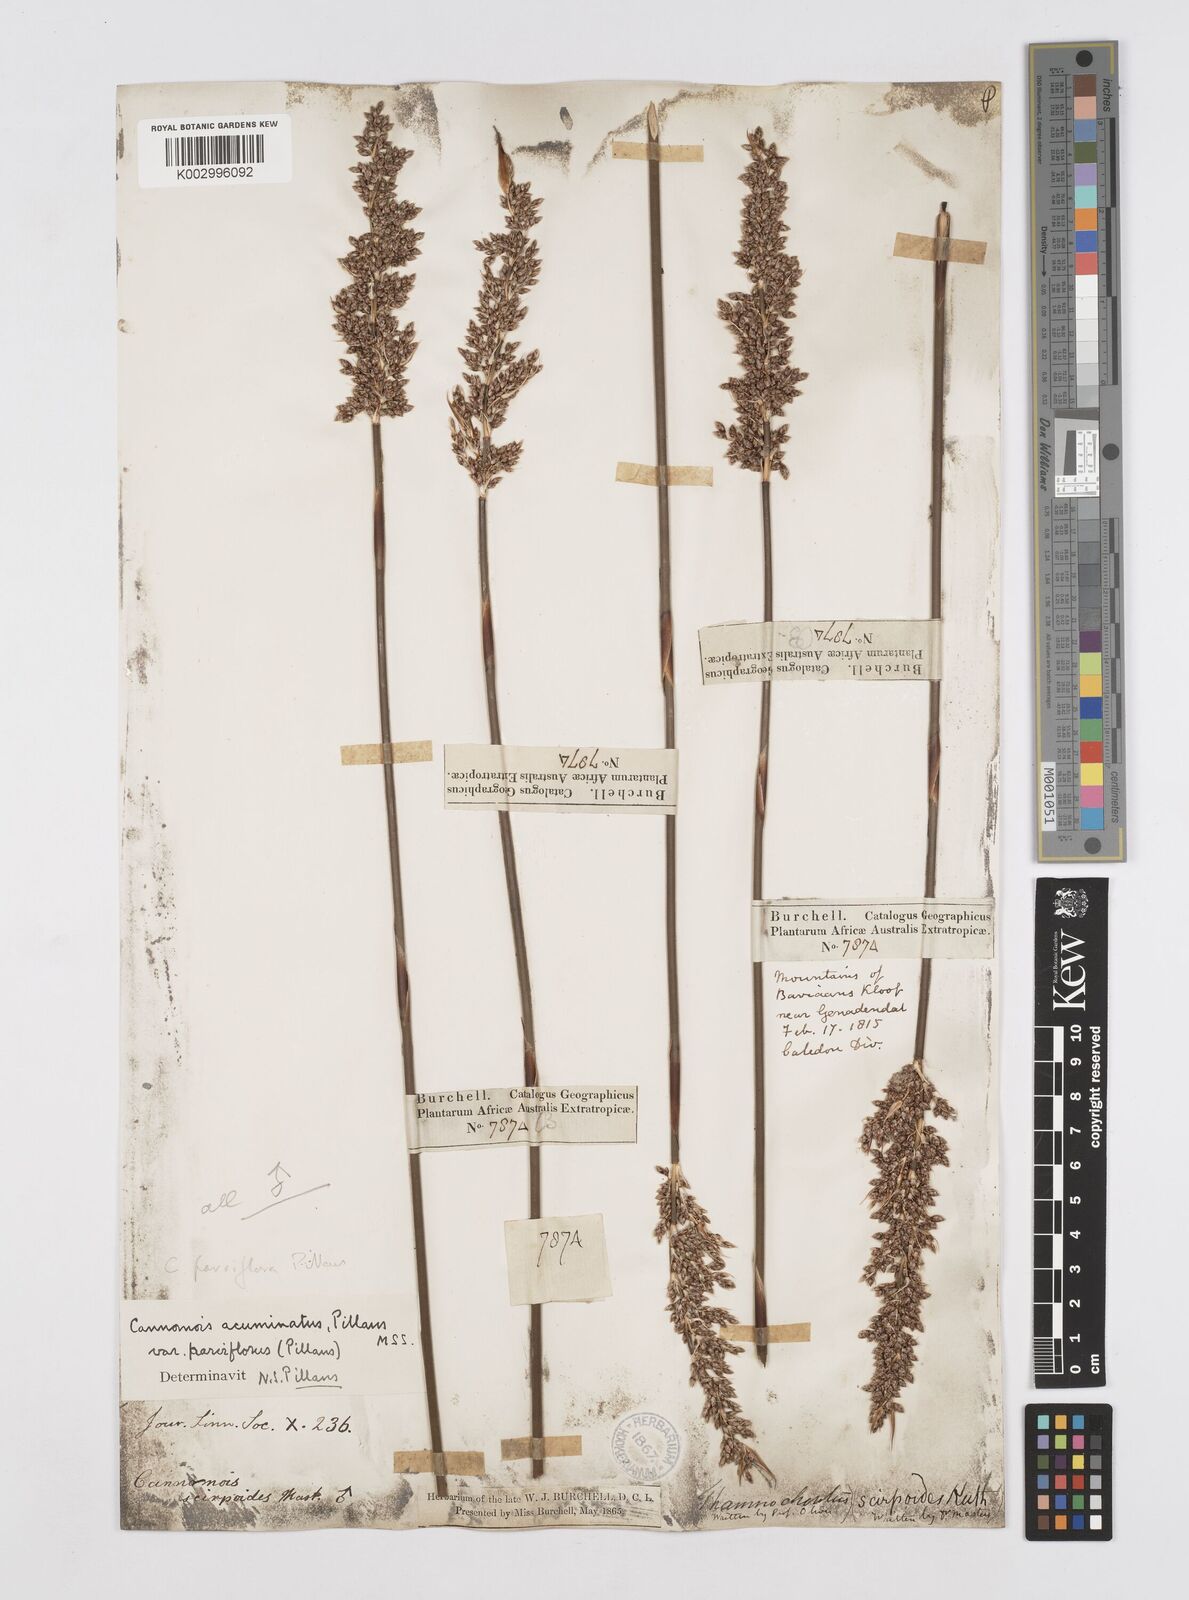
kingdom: Plantae
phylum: Tracheophyta
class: Liliopsida
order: Poales
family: Restionaceae
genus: Cannomois
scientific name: Cannomois parviflora
